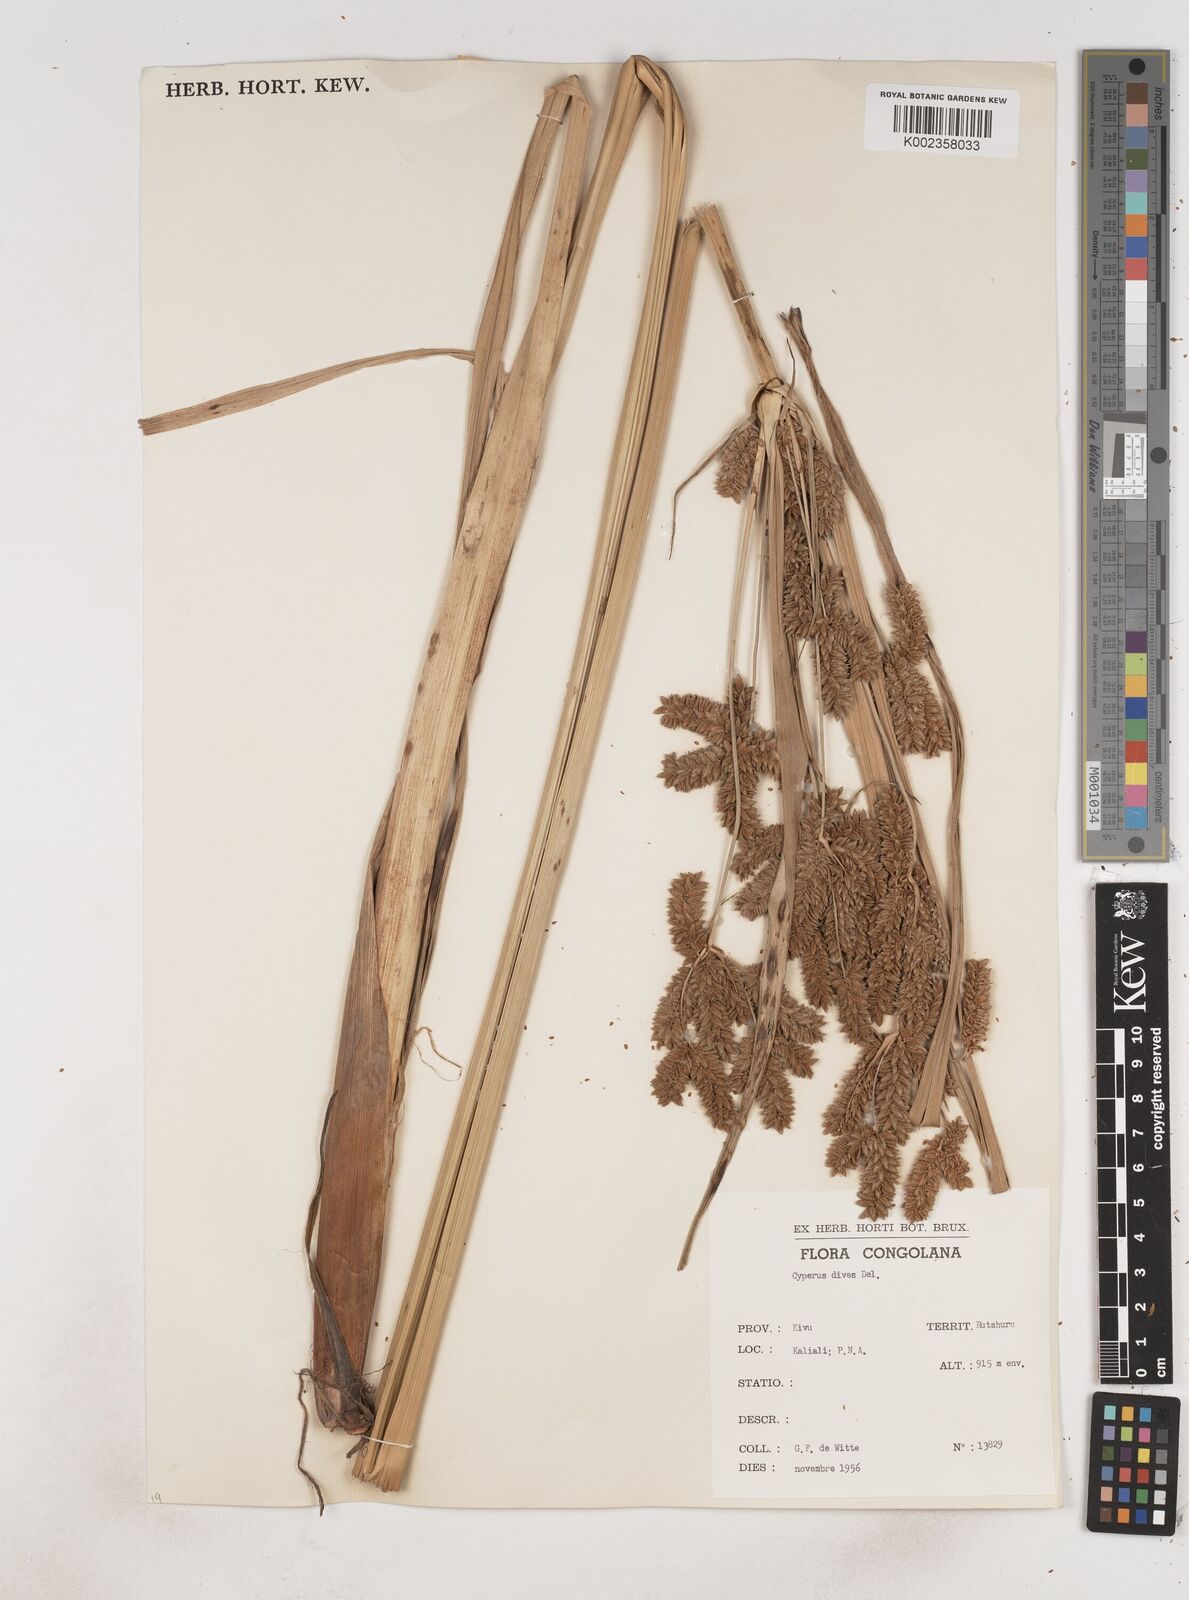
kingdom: Plantae
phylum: Tracheophyta
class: Liliopsida
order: Poales
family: Cyperaceae
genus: Cyperus
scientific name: Cyperus dives
